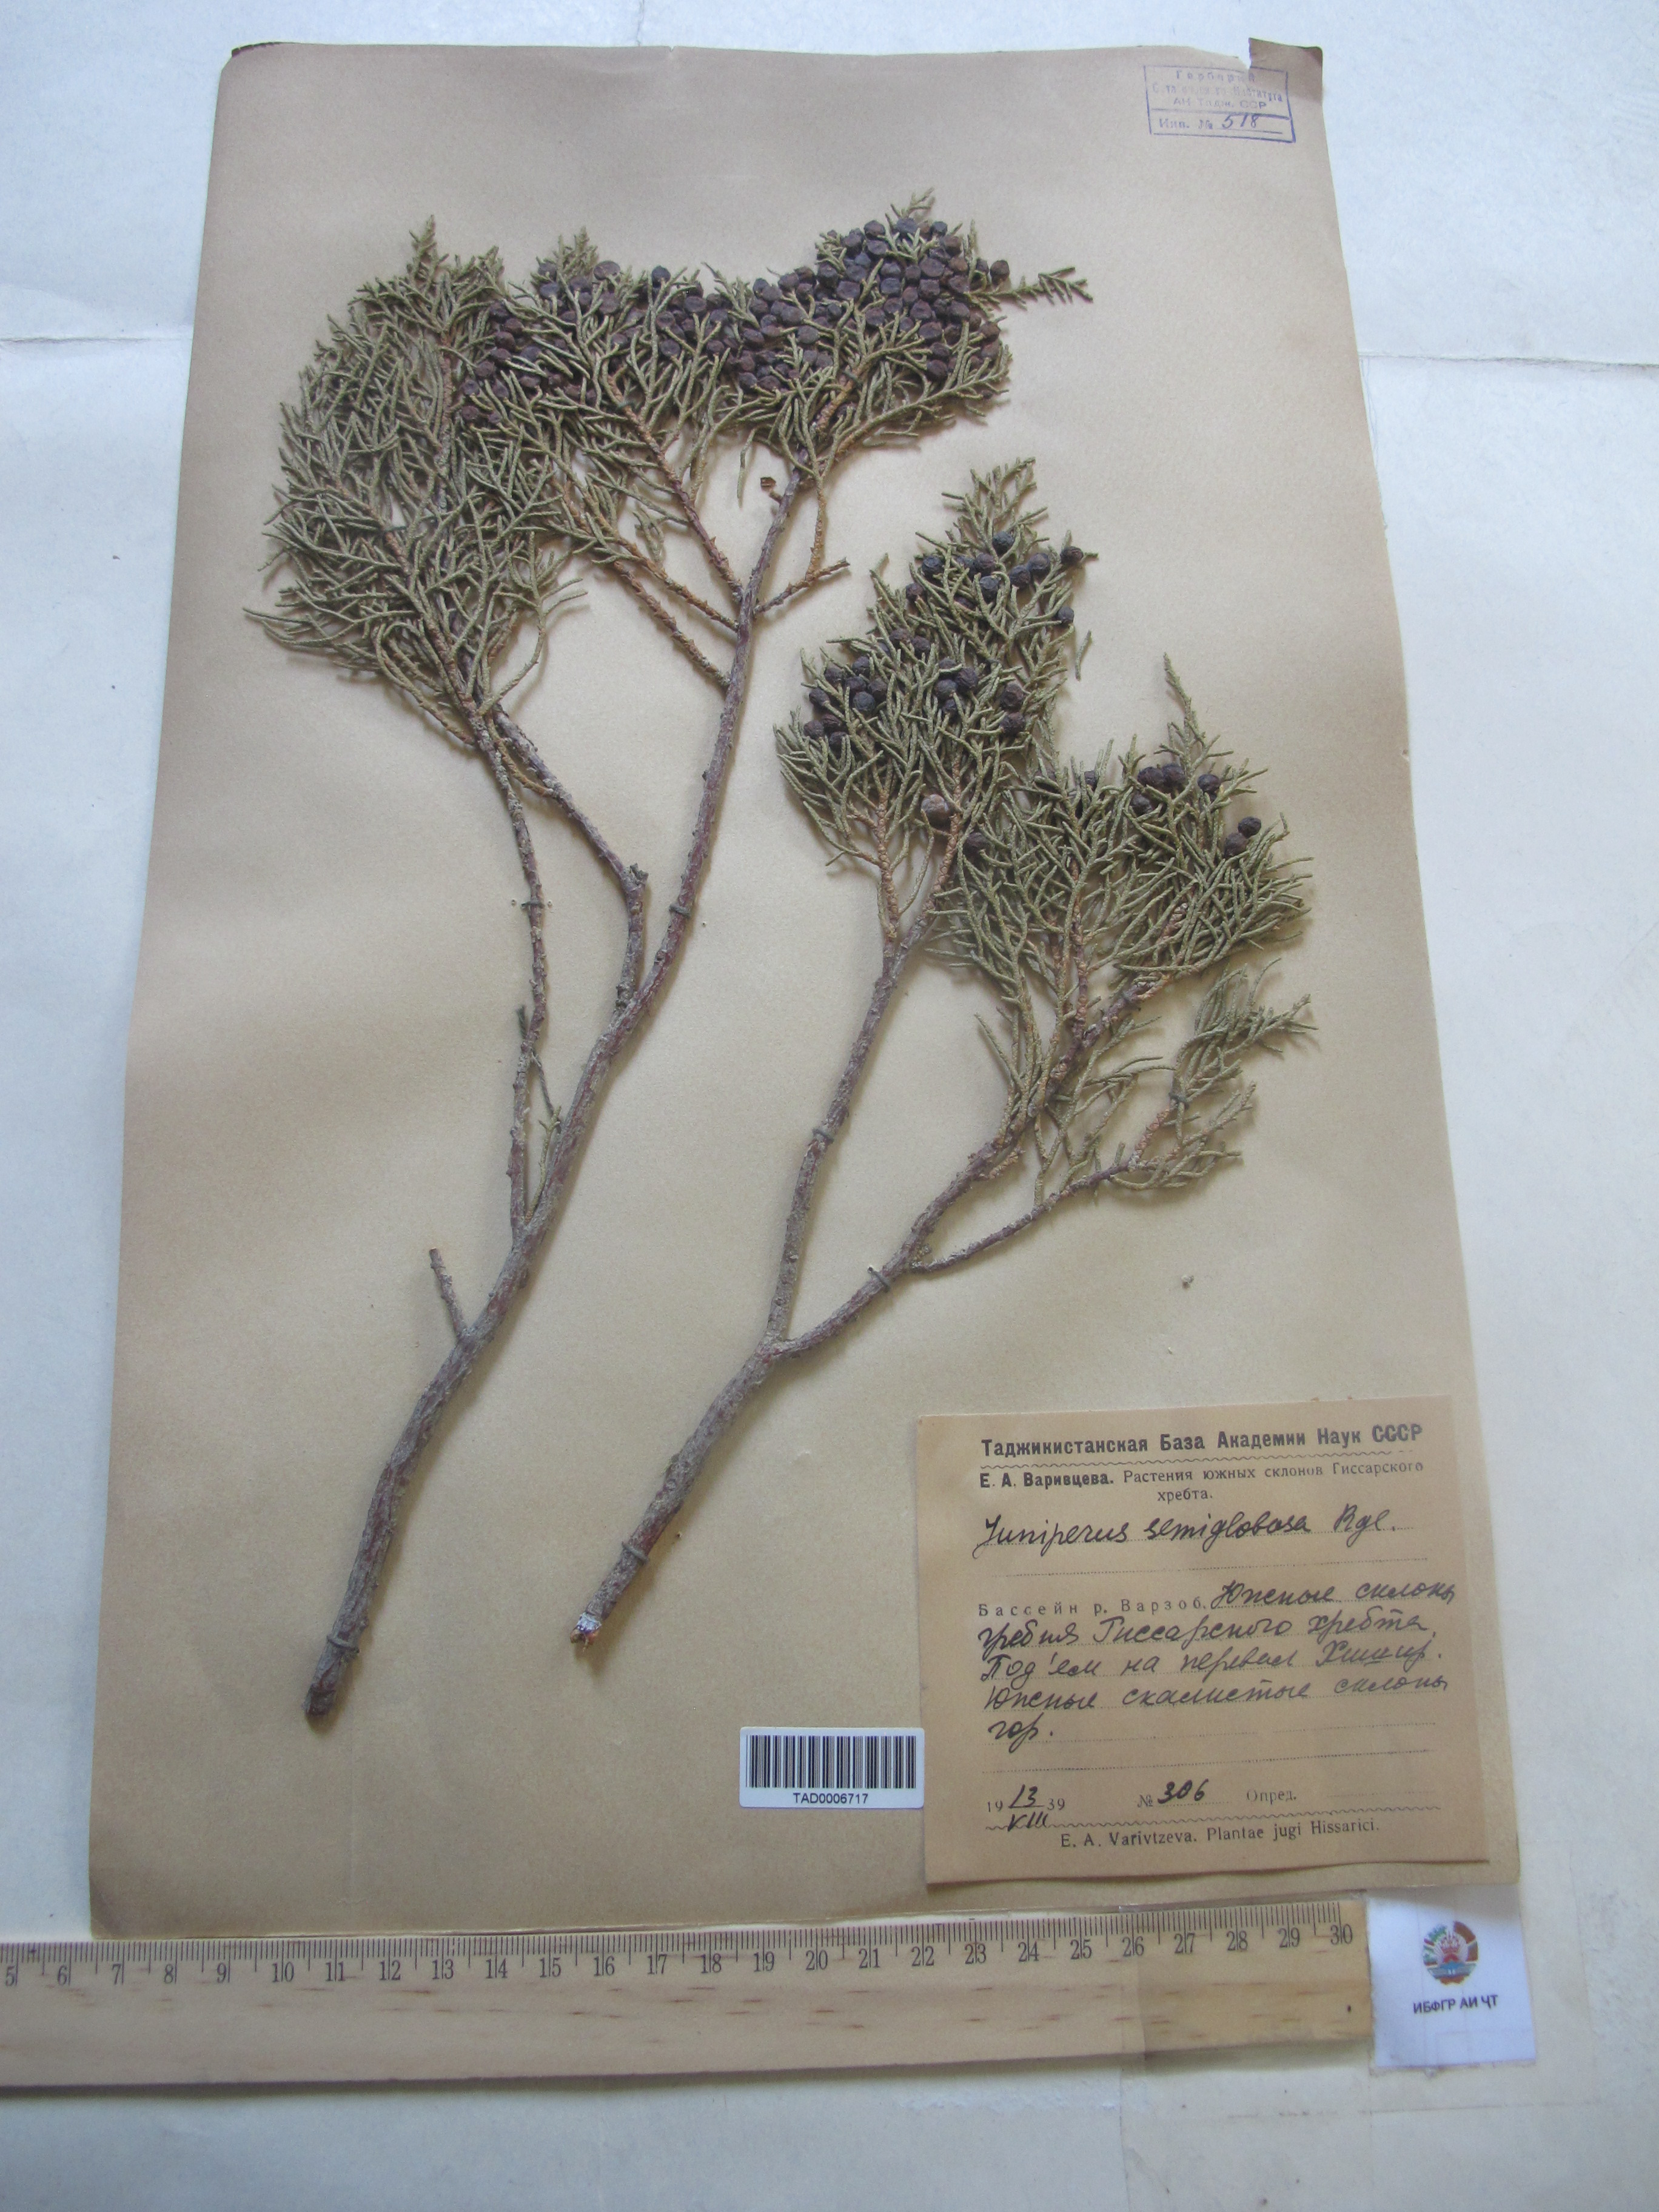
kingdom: Plantae
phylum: Tracheophyta
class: Pinopsida
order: Pinales
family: Cupressaceae
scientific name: Cupressaceae
